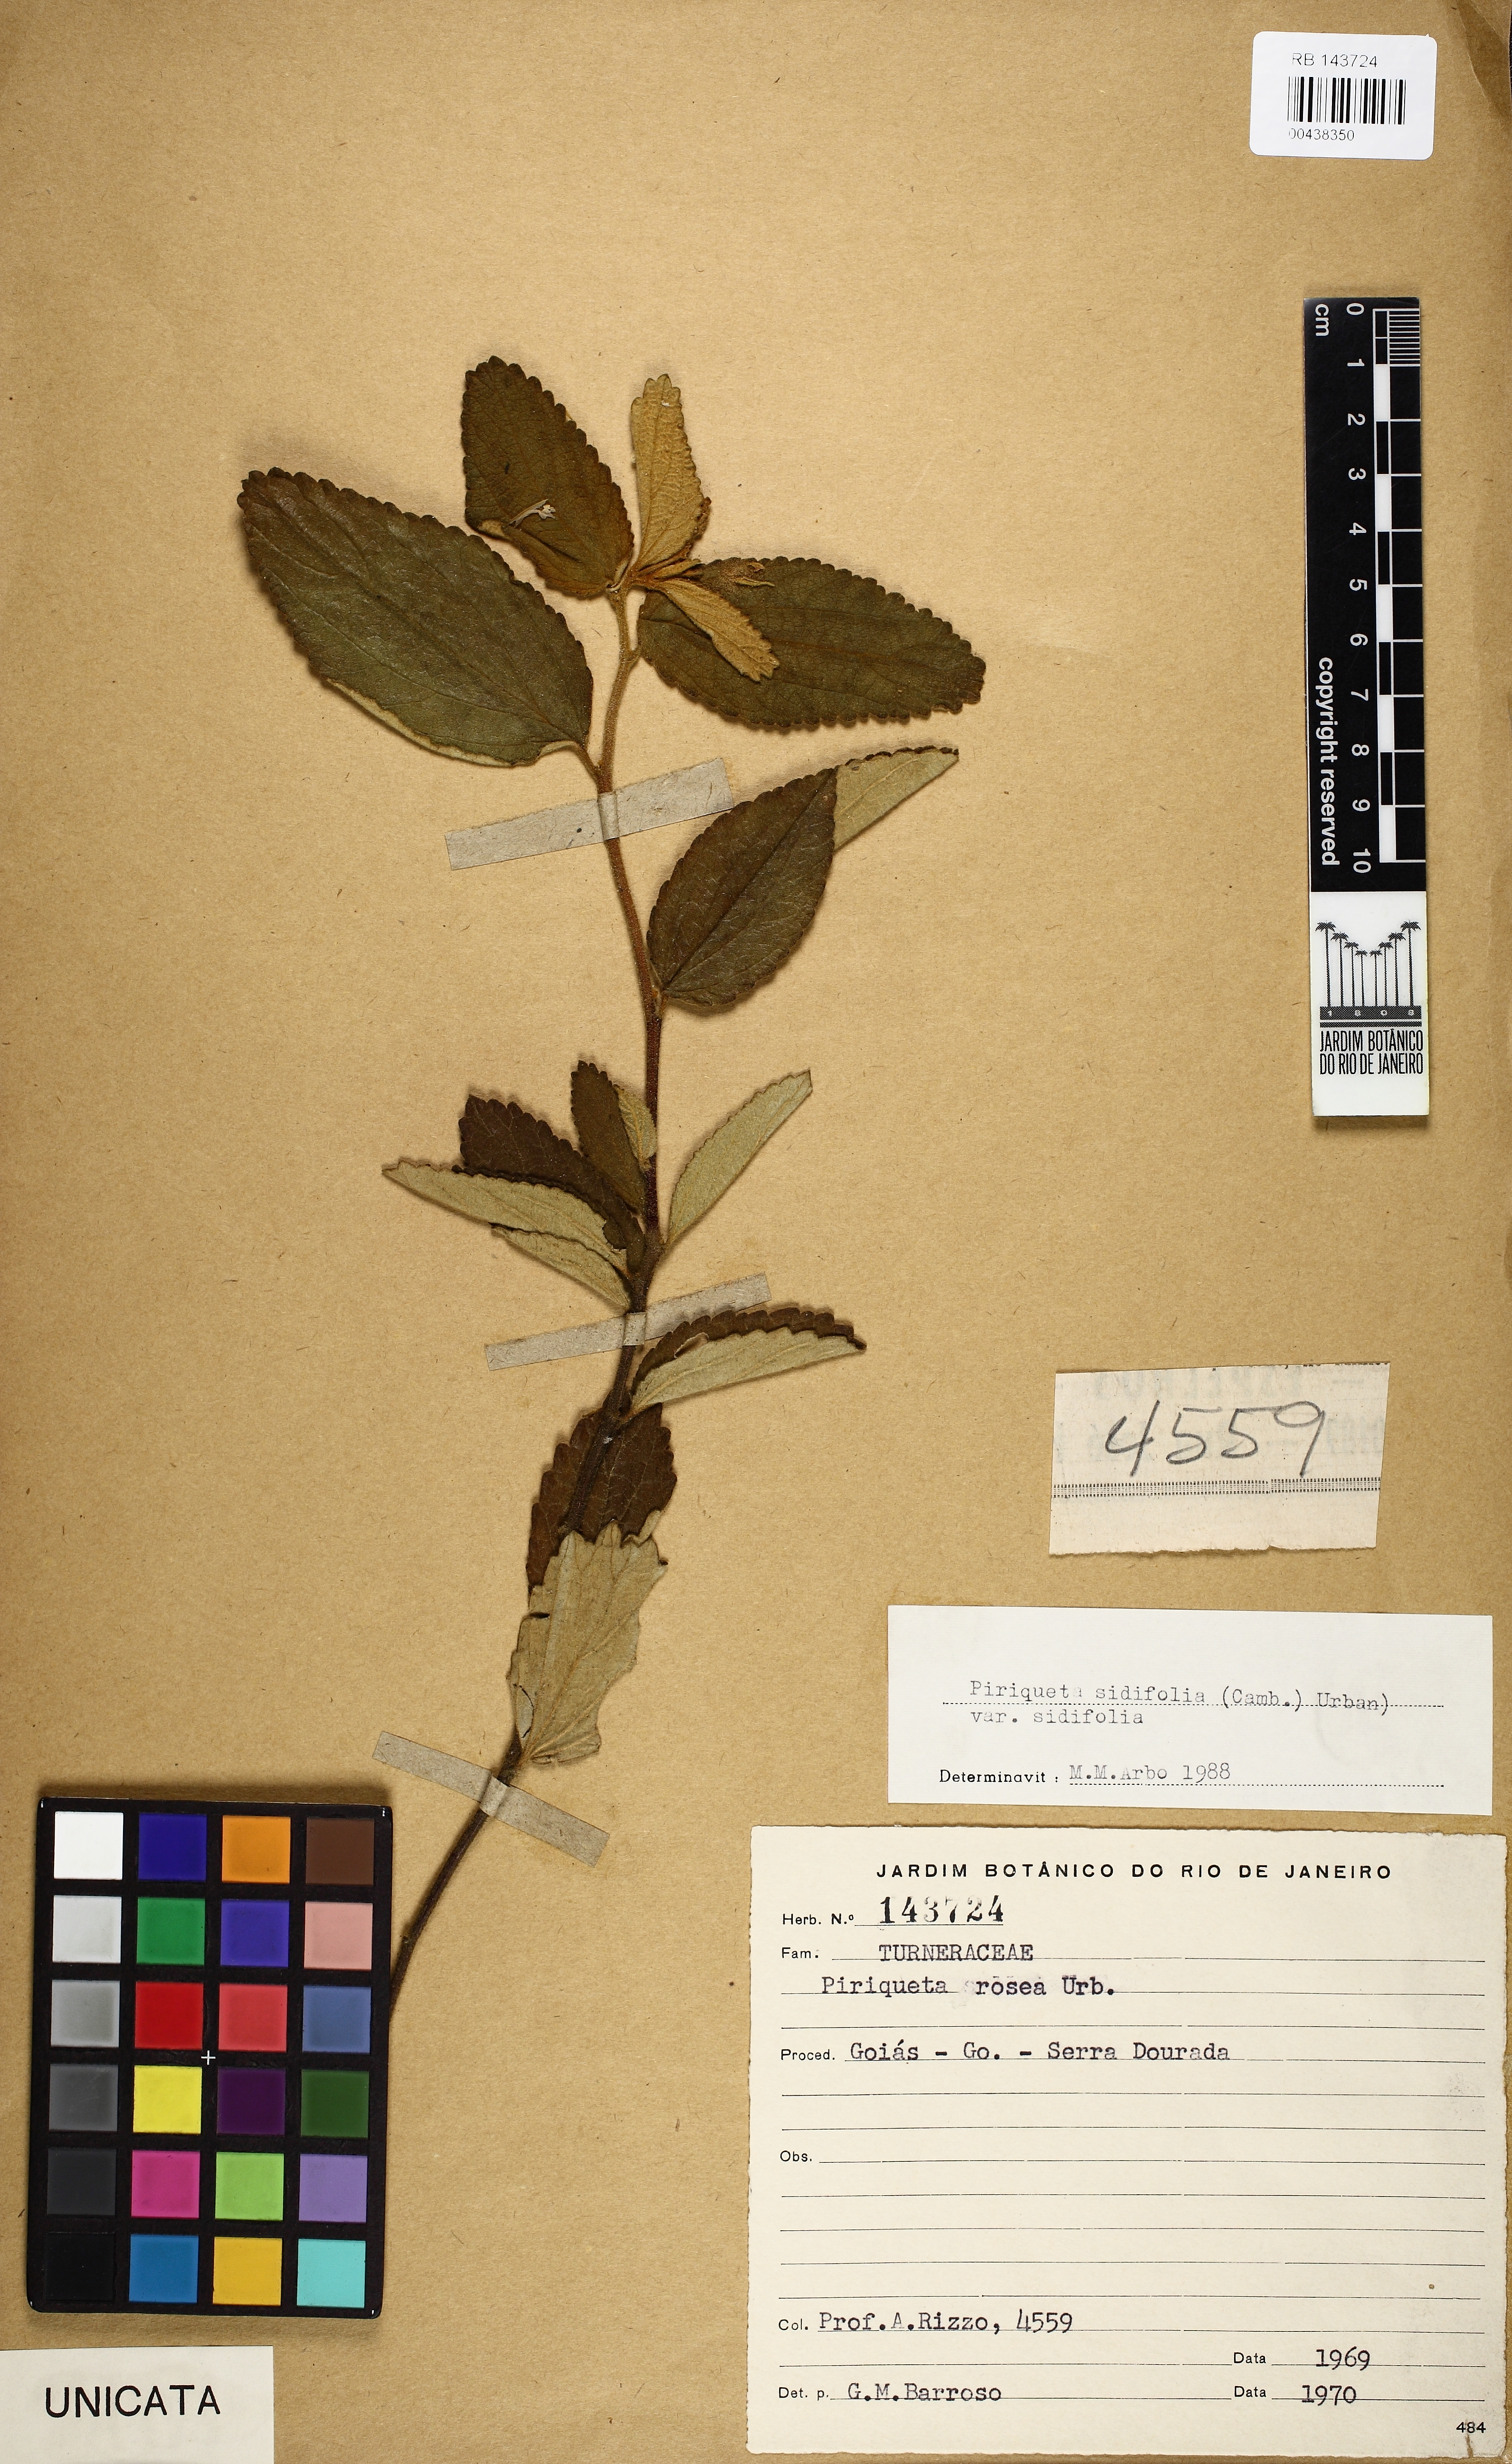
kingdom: Plantae
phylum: Tracheophyta
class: Magnoliopsida
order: Malpighiales
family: Turneraceae
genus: Piriqueta
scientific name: Piriqueta sidifolia
